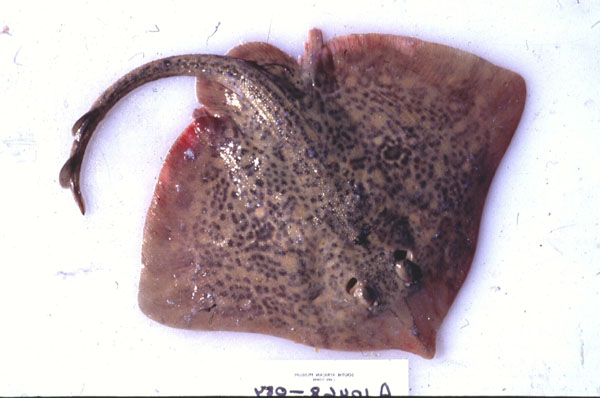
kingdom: Animalia
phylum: Chordata
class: Elasmobranchii
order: Rajiformes
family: Rajidae
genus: Raja
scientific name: Raja straeleni
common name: Biscuit skate
